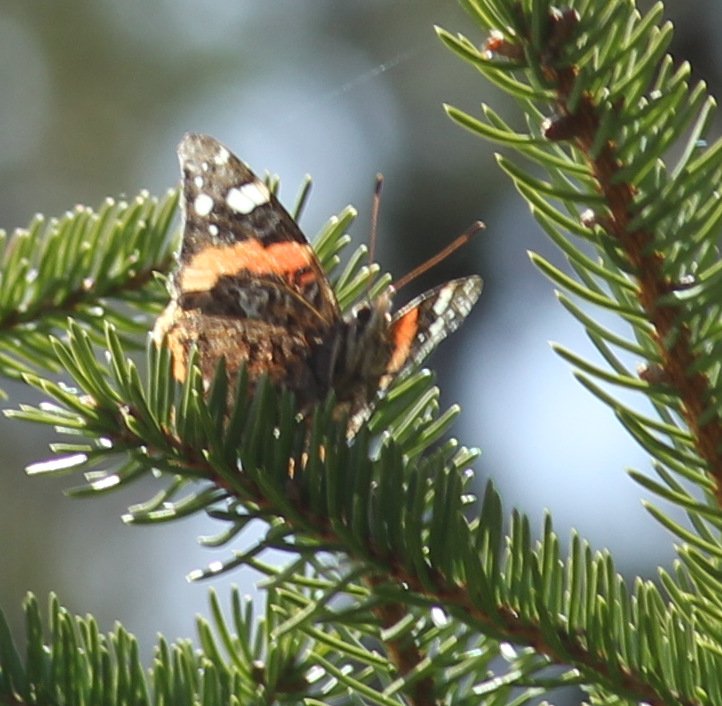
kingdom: Animalia
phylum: Arthropoda
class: Insecta
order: Lepidoptera
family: Nymphalidae
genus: Vanessa
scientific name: Vanessa atalanta
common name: Red Admiral
